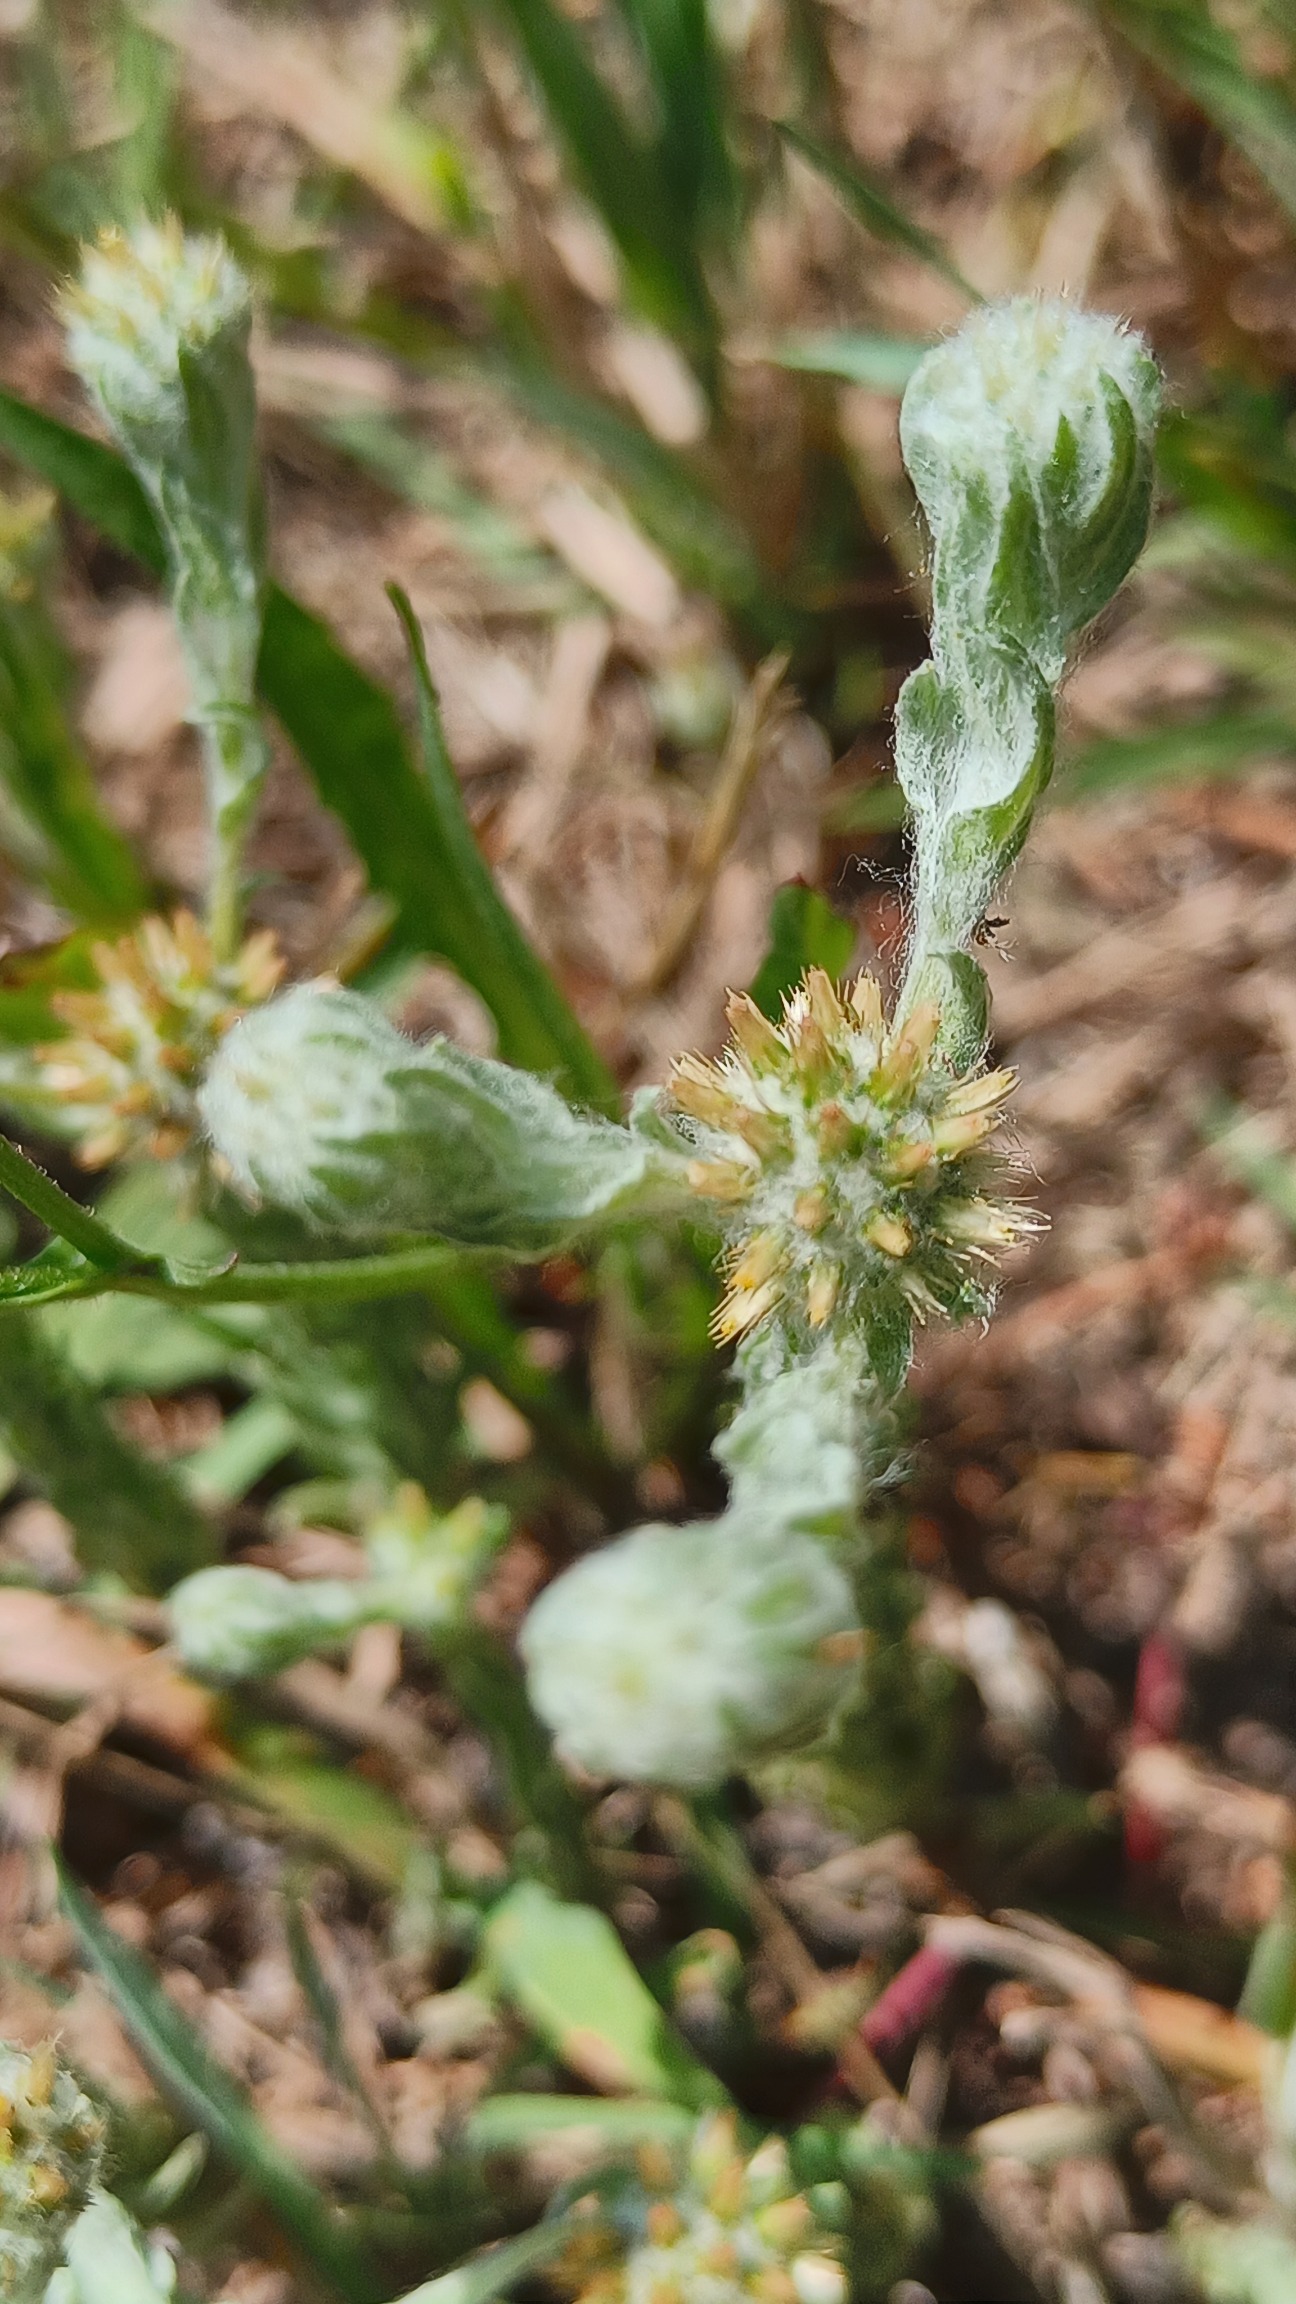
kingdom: Plantae
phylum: Tracheophyta
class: Magnoliopsida
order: Asterales
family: Asteraceae
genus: Filago
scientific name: Filago germanica
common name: Kugle-museurt
